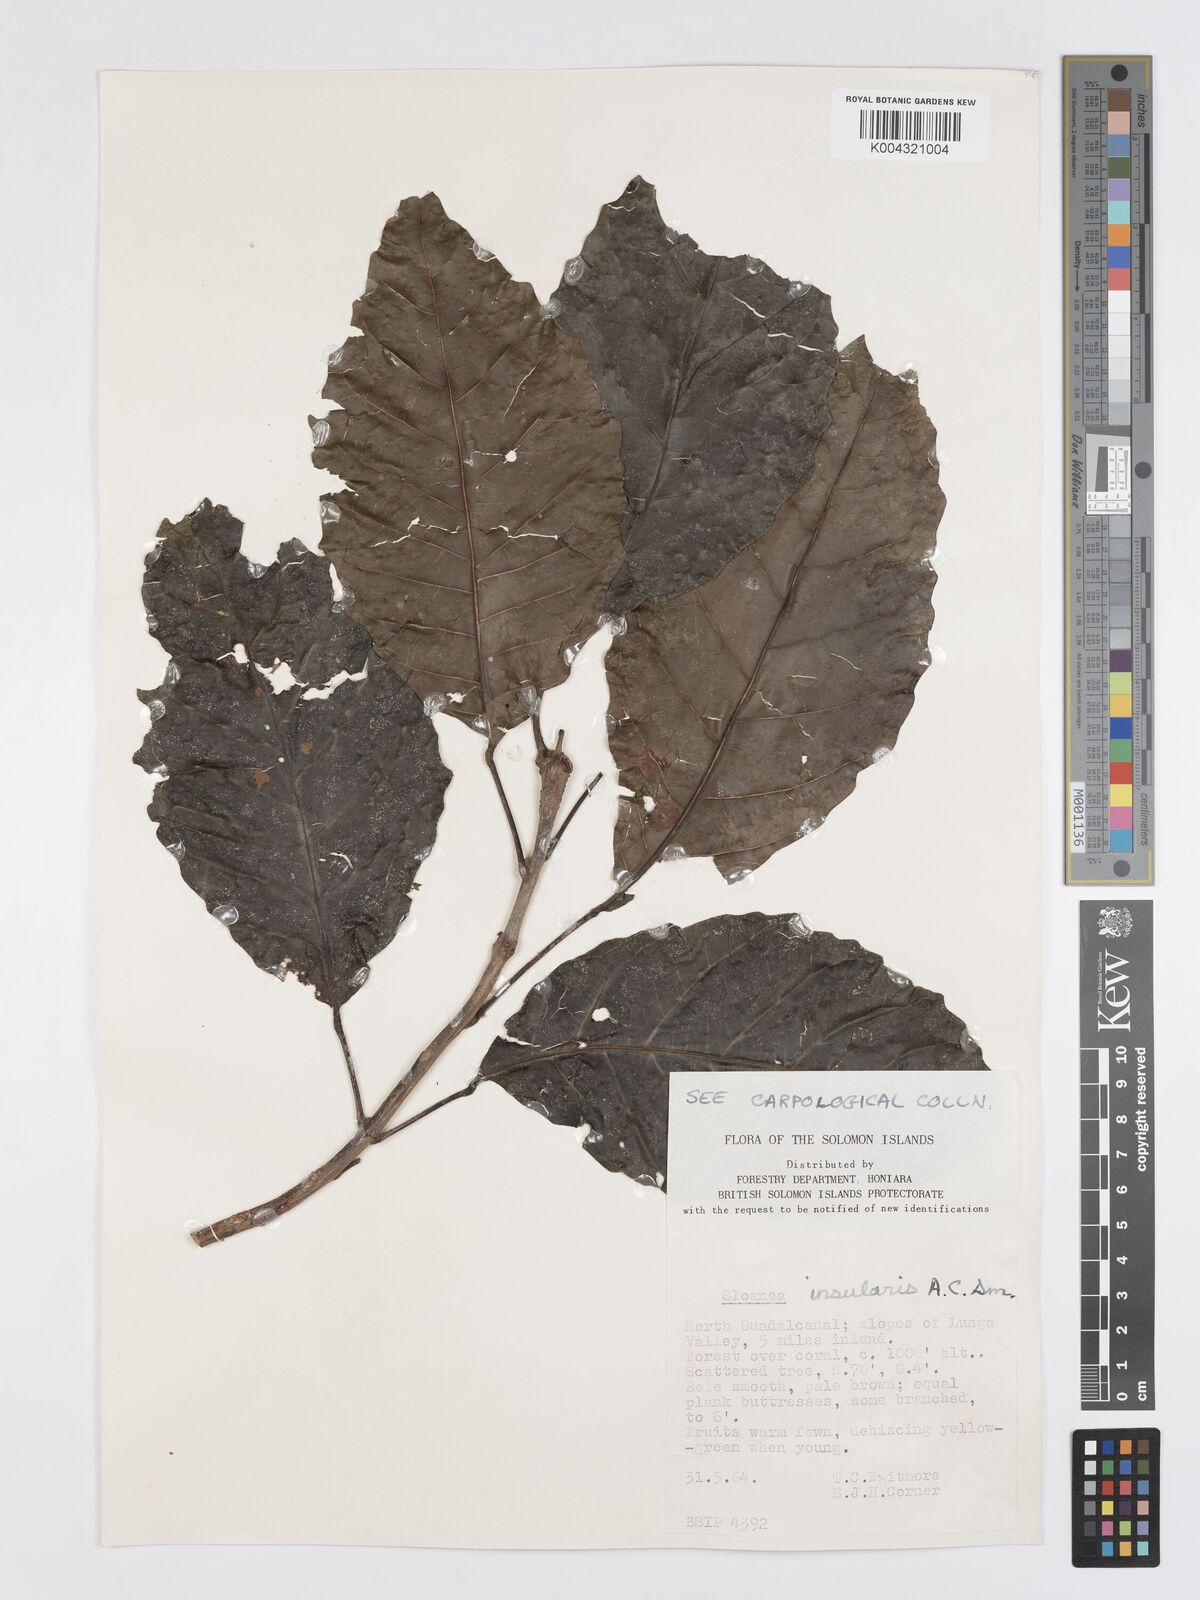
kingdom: Plantae
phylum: Tracheophyta
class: Magnoliopsida
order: Oxalidales
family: Elaeocarpaceae
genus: Sloanea
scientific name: Sloanea insularis
